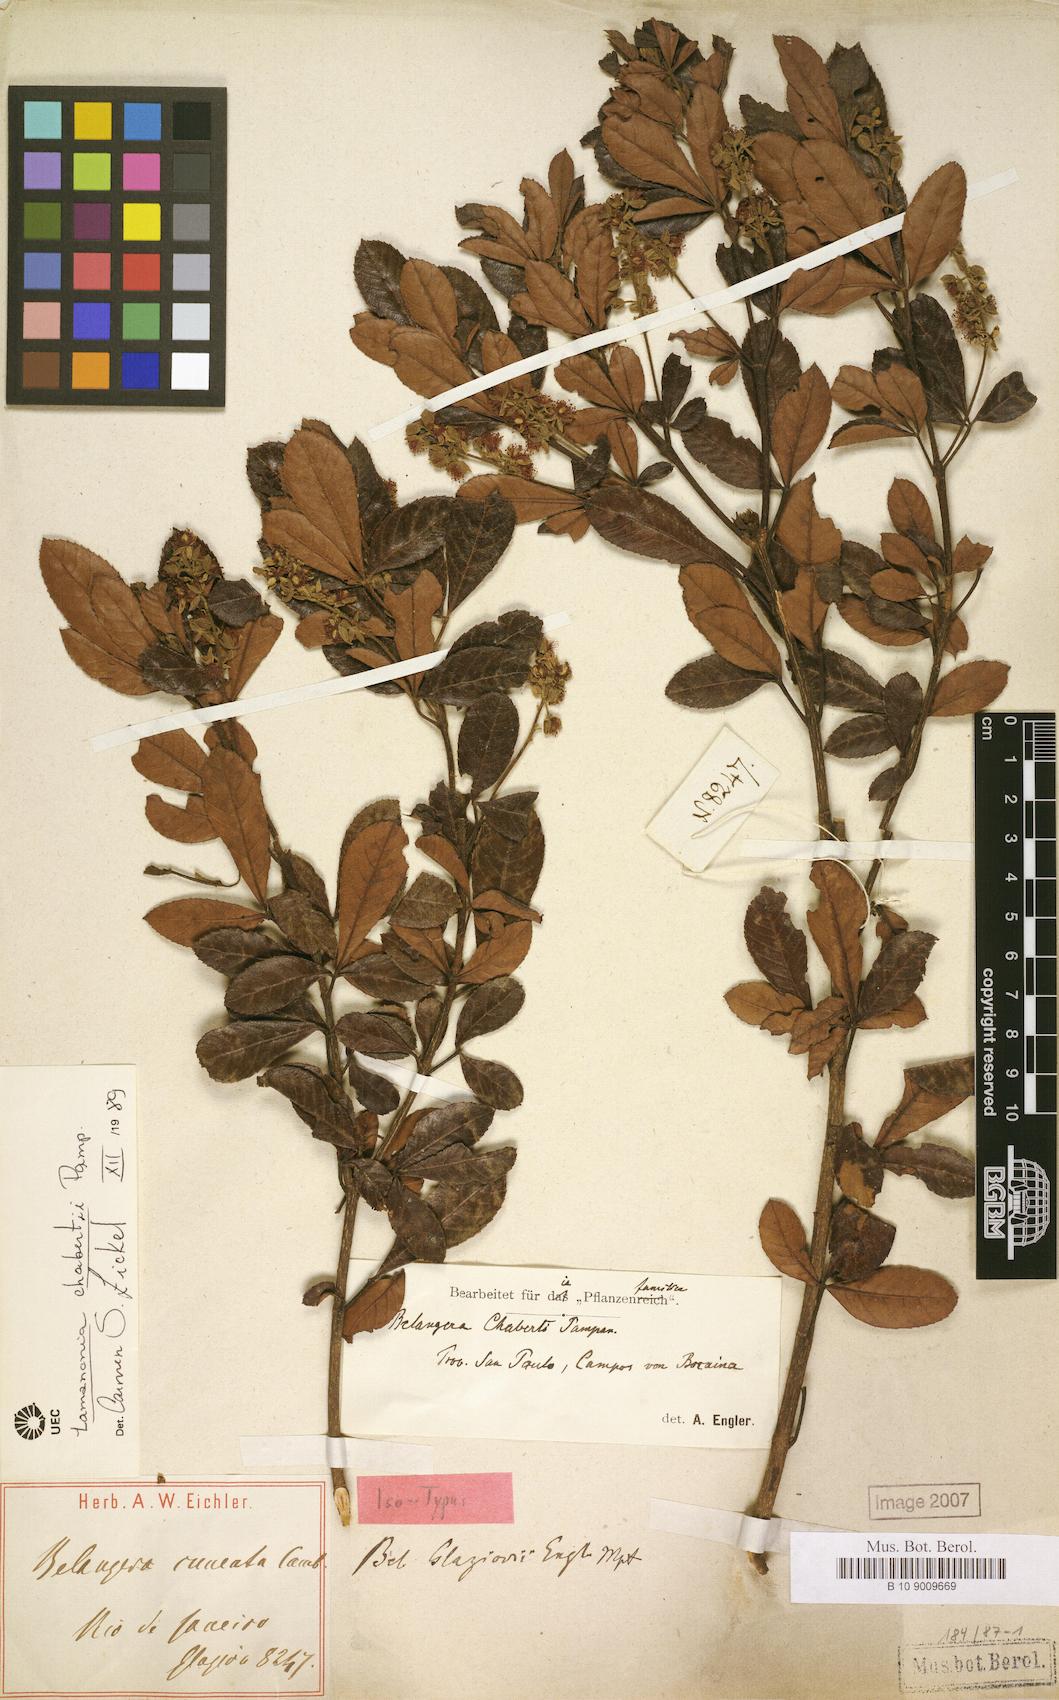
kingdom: Plantae
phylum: Tracheophyta
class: Magnoliopsida
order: Oxalidales
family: Cunoniaceae
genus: Lamanonia
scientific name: Lamanonia chabertii
